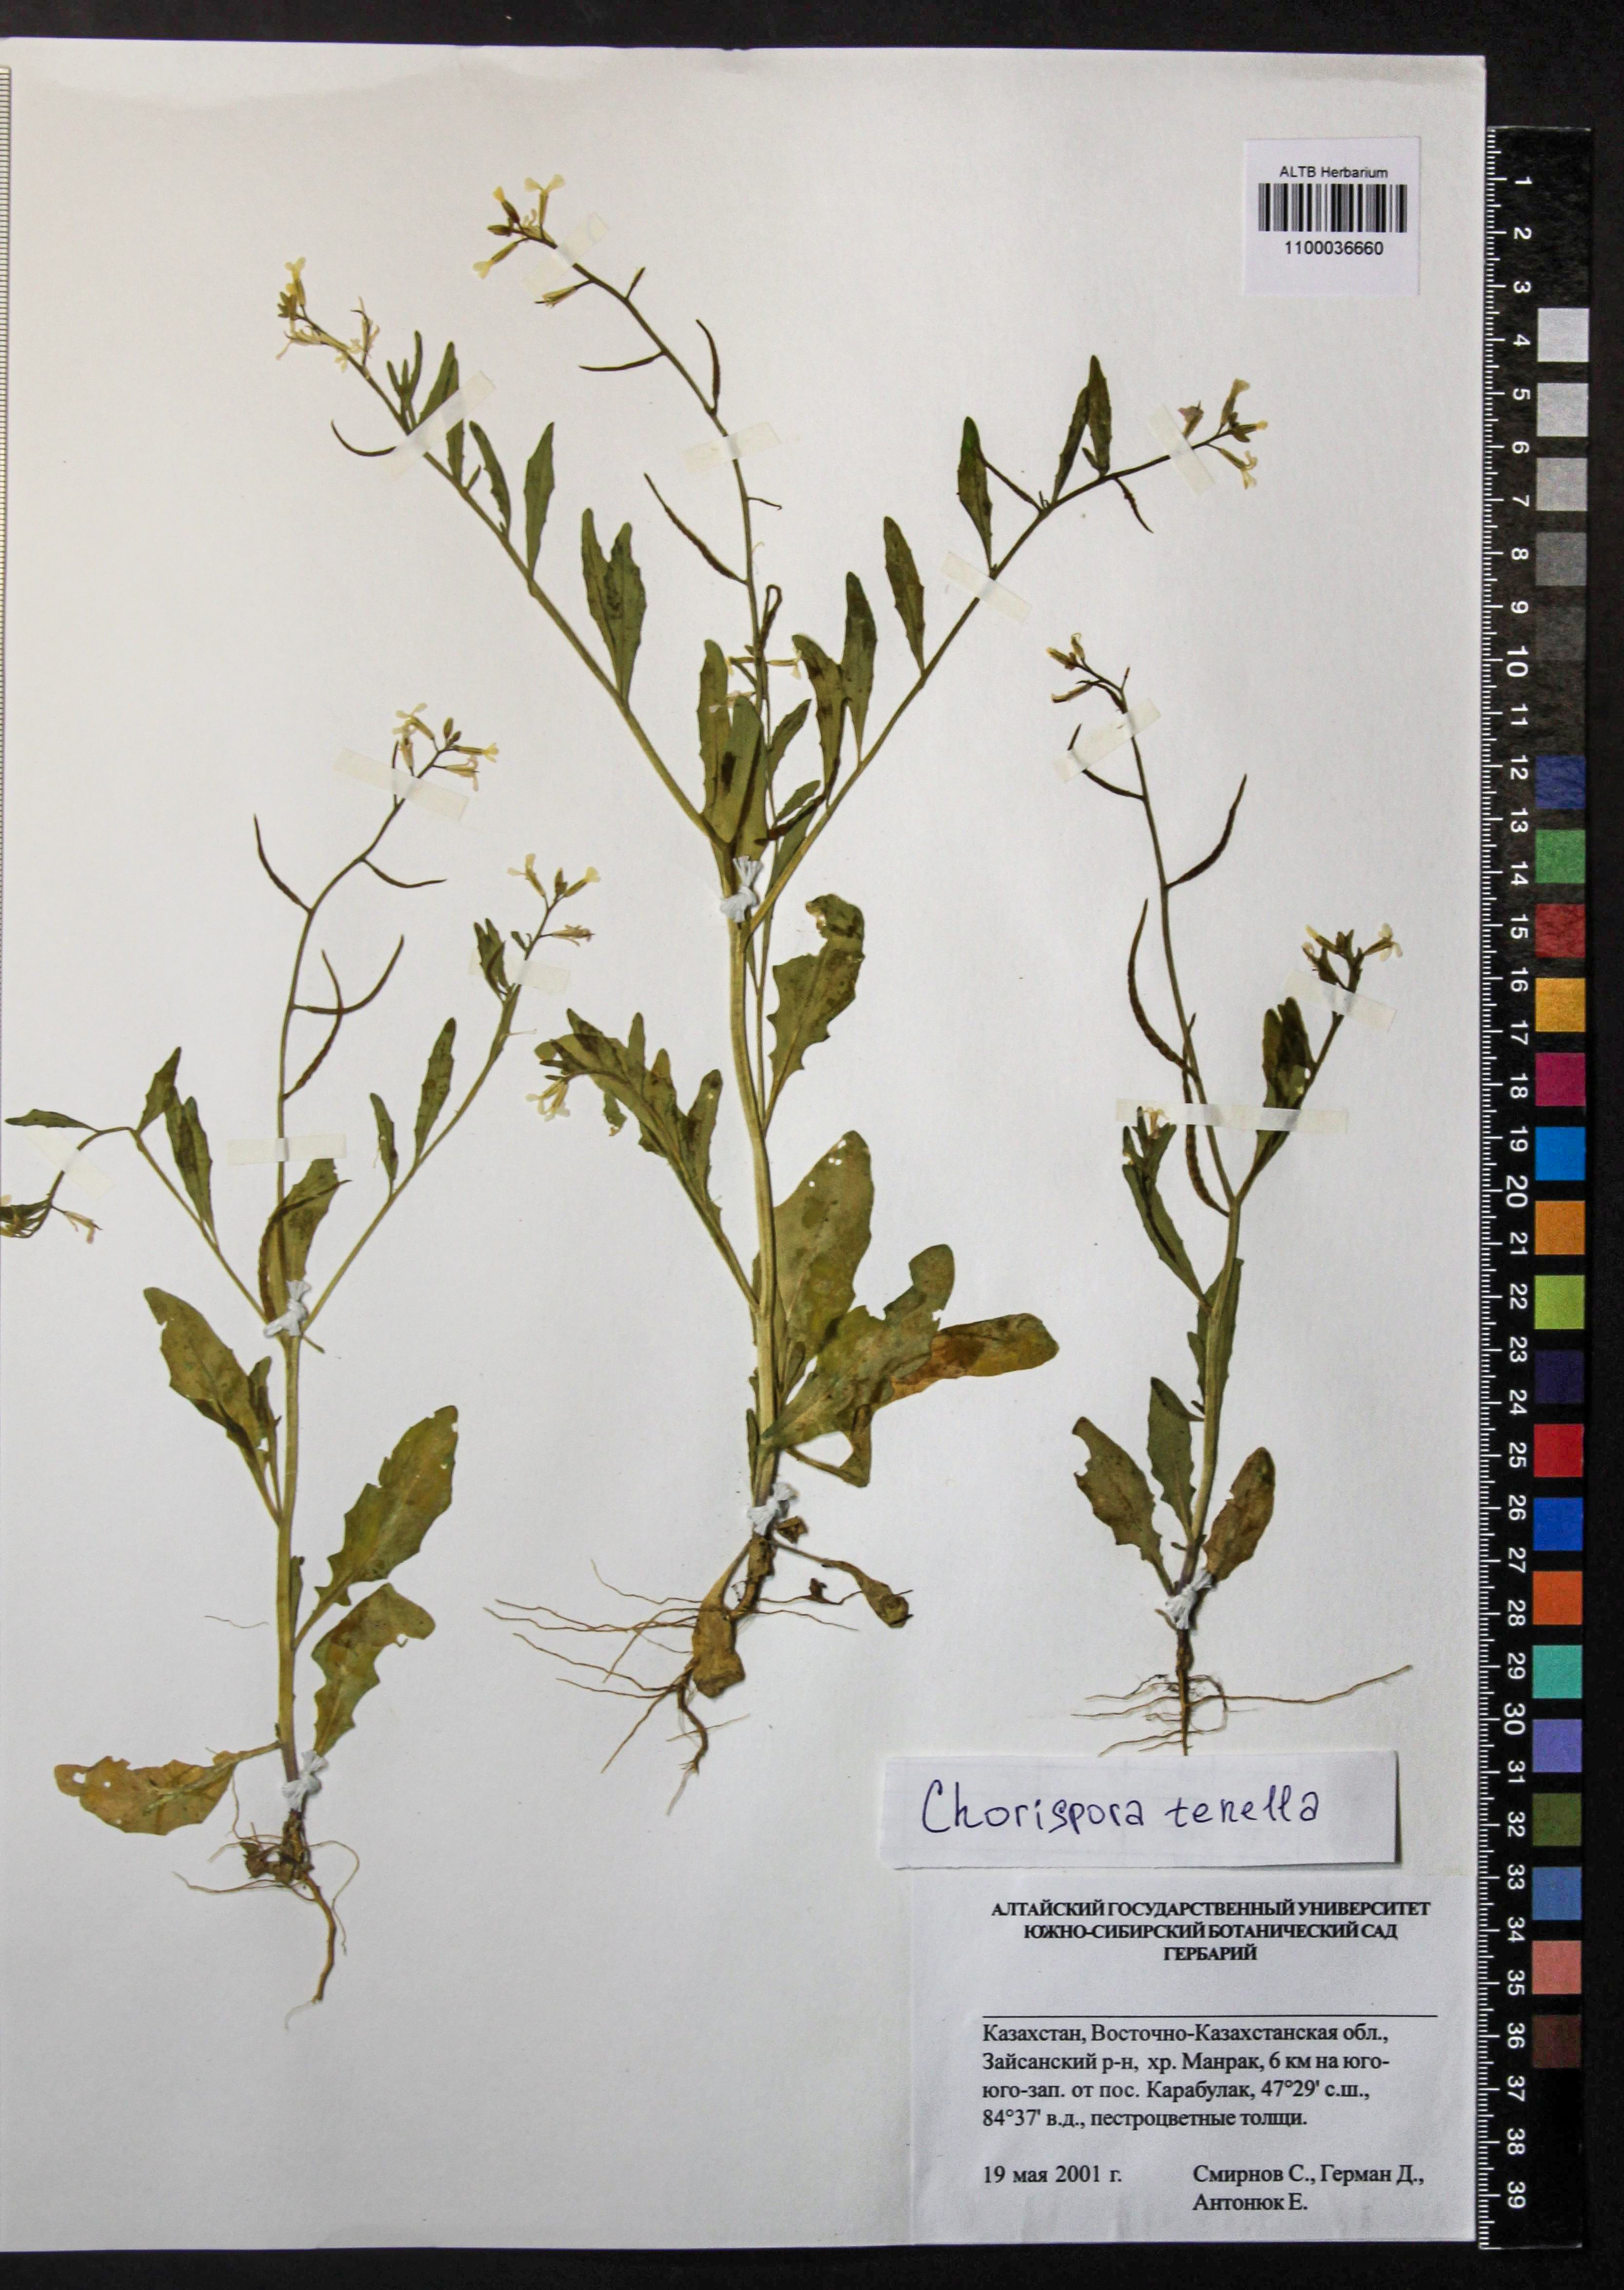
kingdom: Plantae
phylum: Tracheophyta
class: Magnoliopsida
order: Brassicales
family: Brassicaceae
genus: Chorispora
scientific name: Chorispora sibirica
